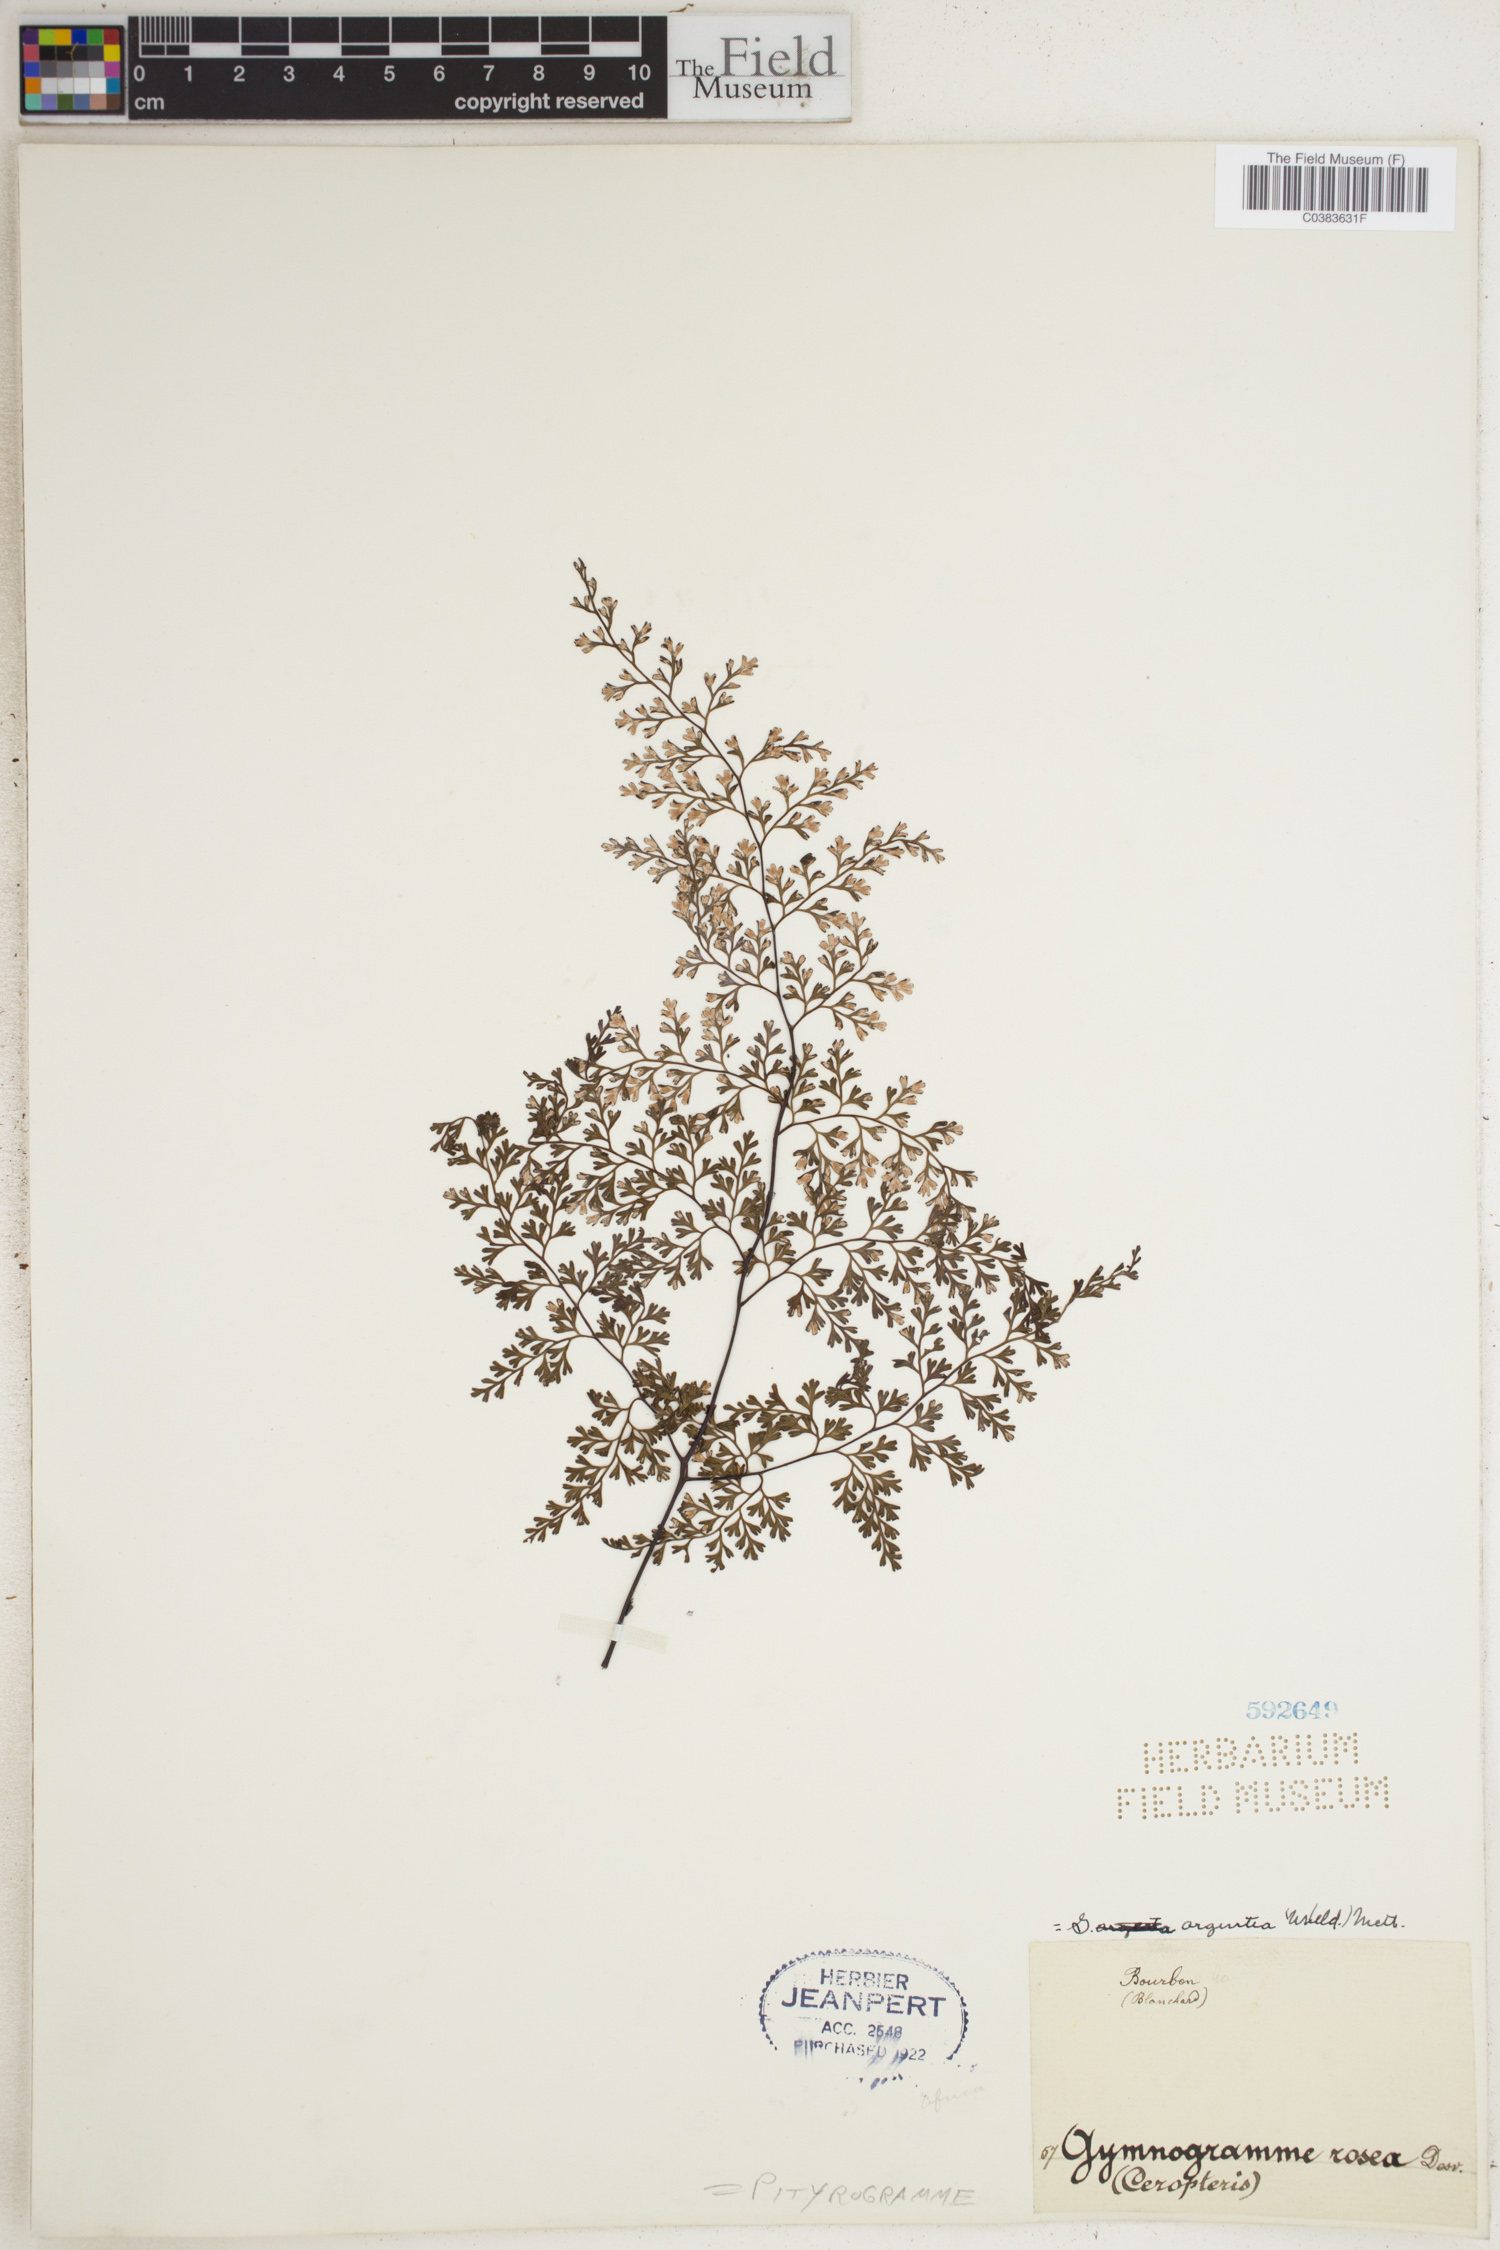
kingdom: Plantae
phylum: Tracheophyta
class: Polypodiopsida
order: Polypodiales
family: Pteridaceae
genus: Cerosora
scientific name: Cerosora argentea
